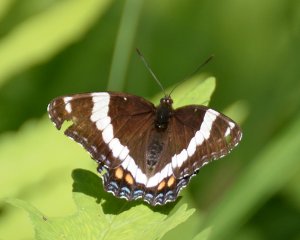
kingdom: Animalia
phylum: Arthropoda
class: Insecta
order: Lepidoptera
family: Nymphalidae
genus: Limenitis
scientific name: Limenitis arthemis
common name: Red-spotted Admiral
